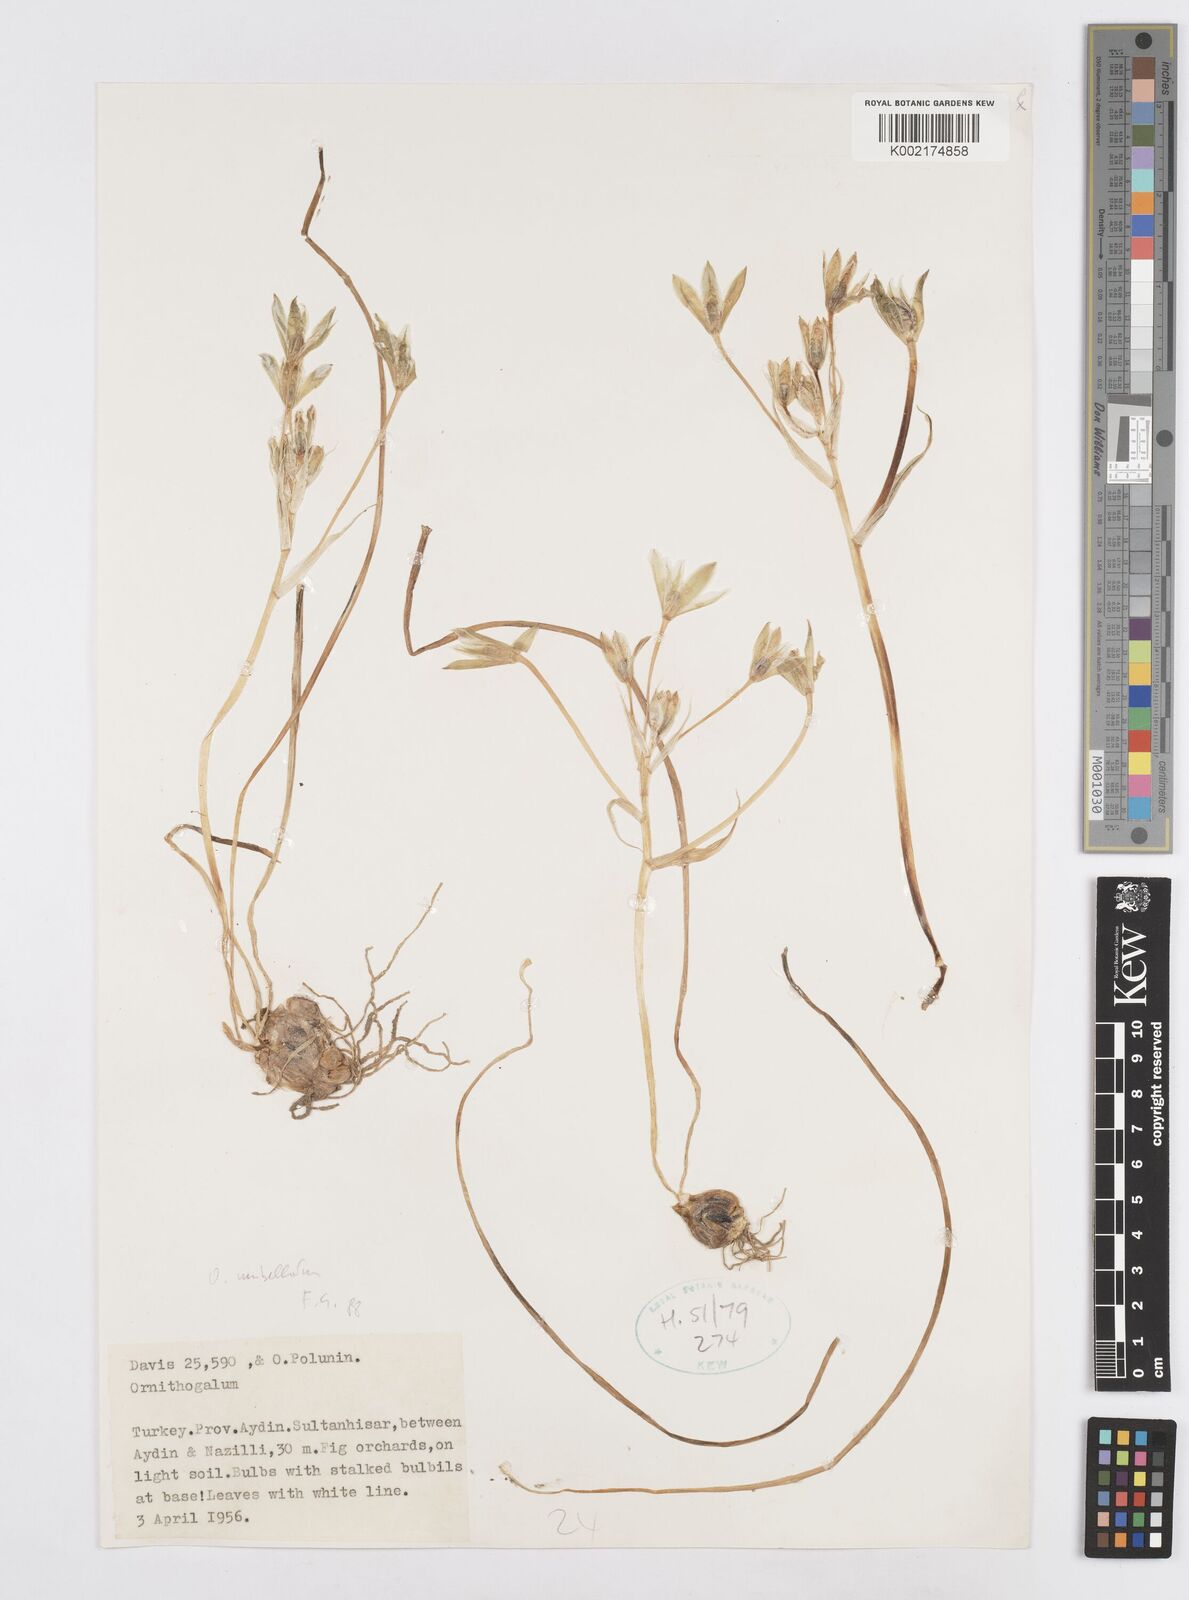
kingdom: Plantae
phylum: Tracheophyta
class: Liliopsida
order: Asparagales
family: Asparagaceae
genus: Ornithogalum
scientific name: Ornithogalum umbellatum
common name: Garden star-of-bethlehem
